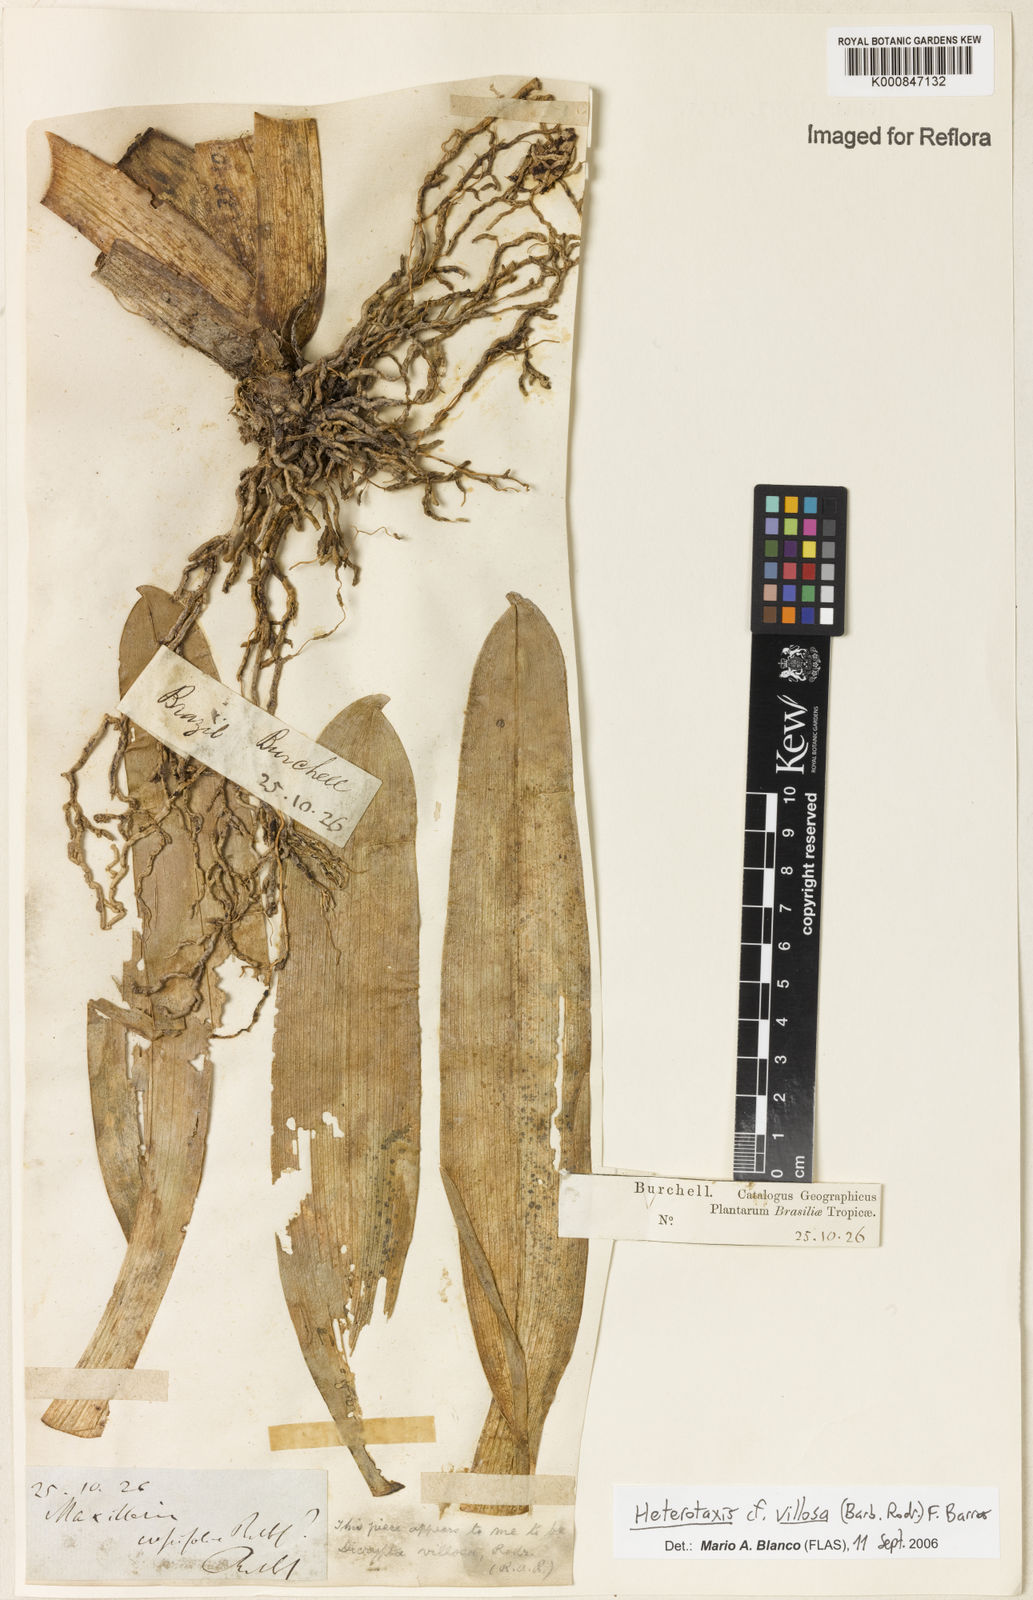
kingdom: Plantae
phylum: Tracheophyta
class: Liliopsida
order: Asparagales
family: Orchidaceae
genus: Maxillaria
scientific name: Maxillaria villosa
